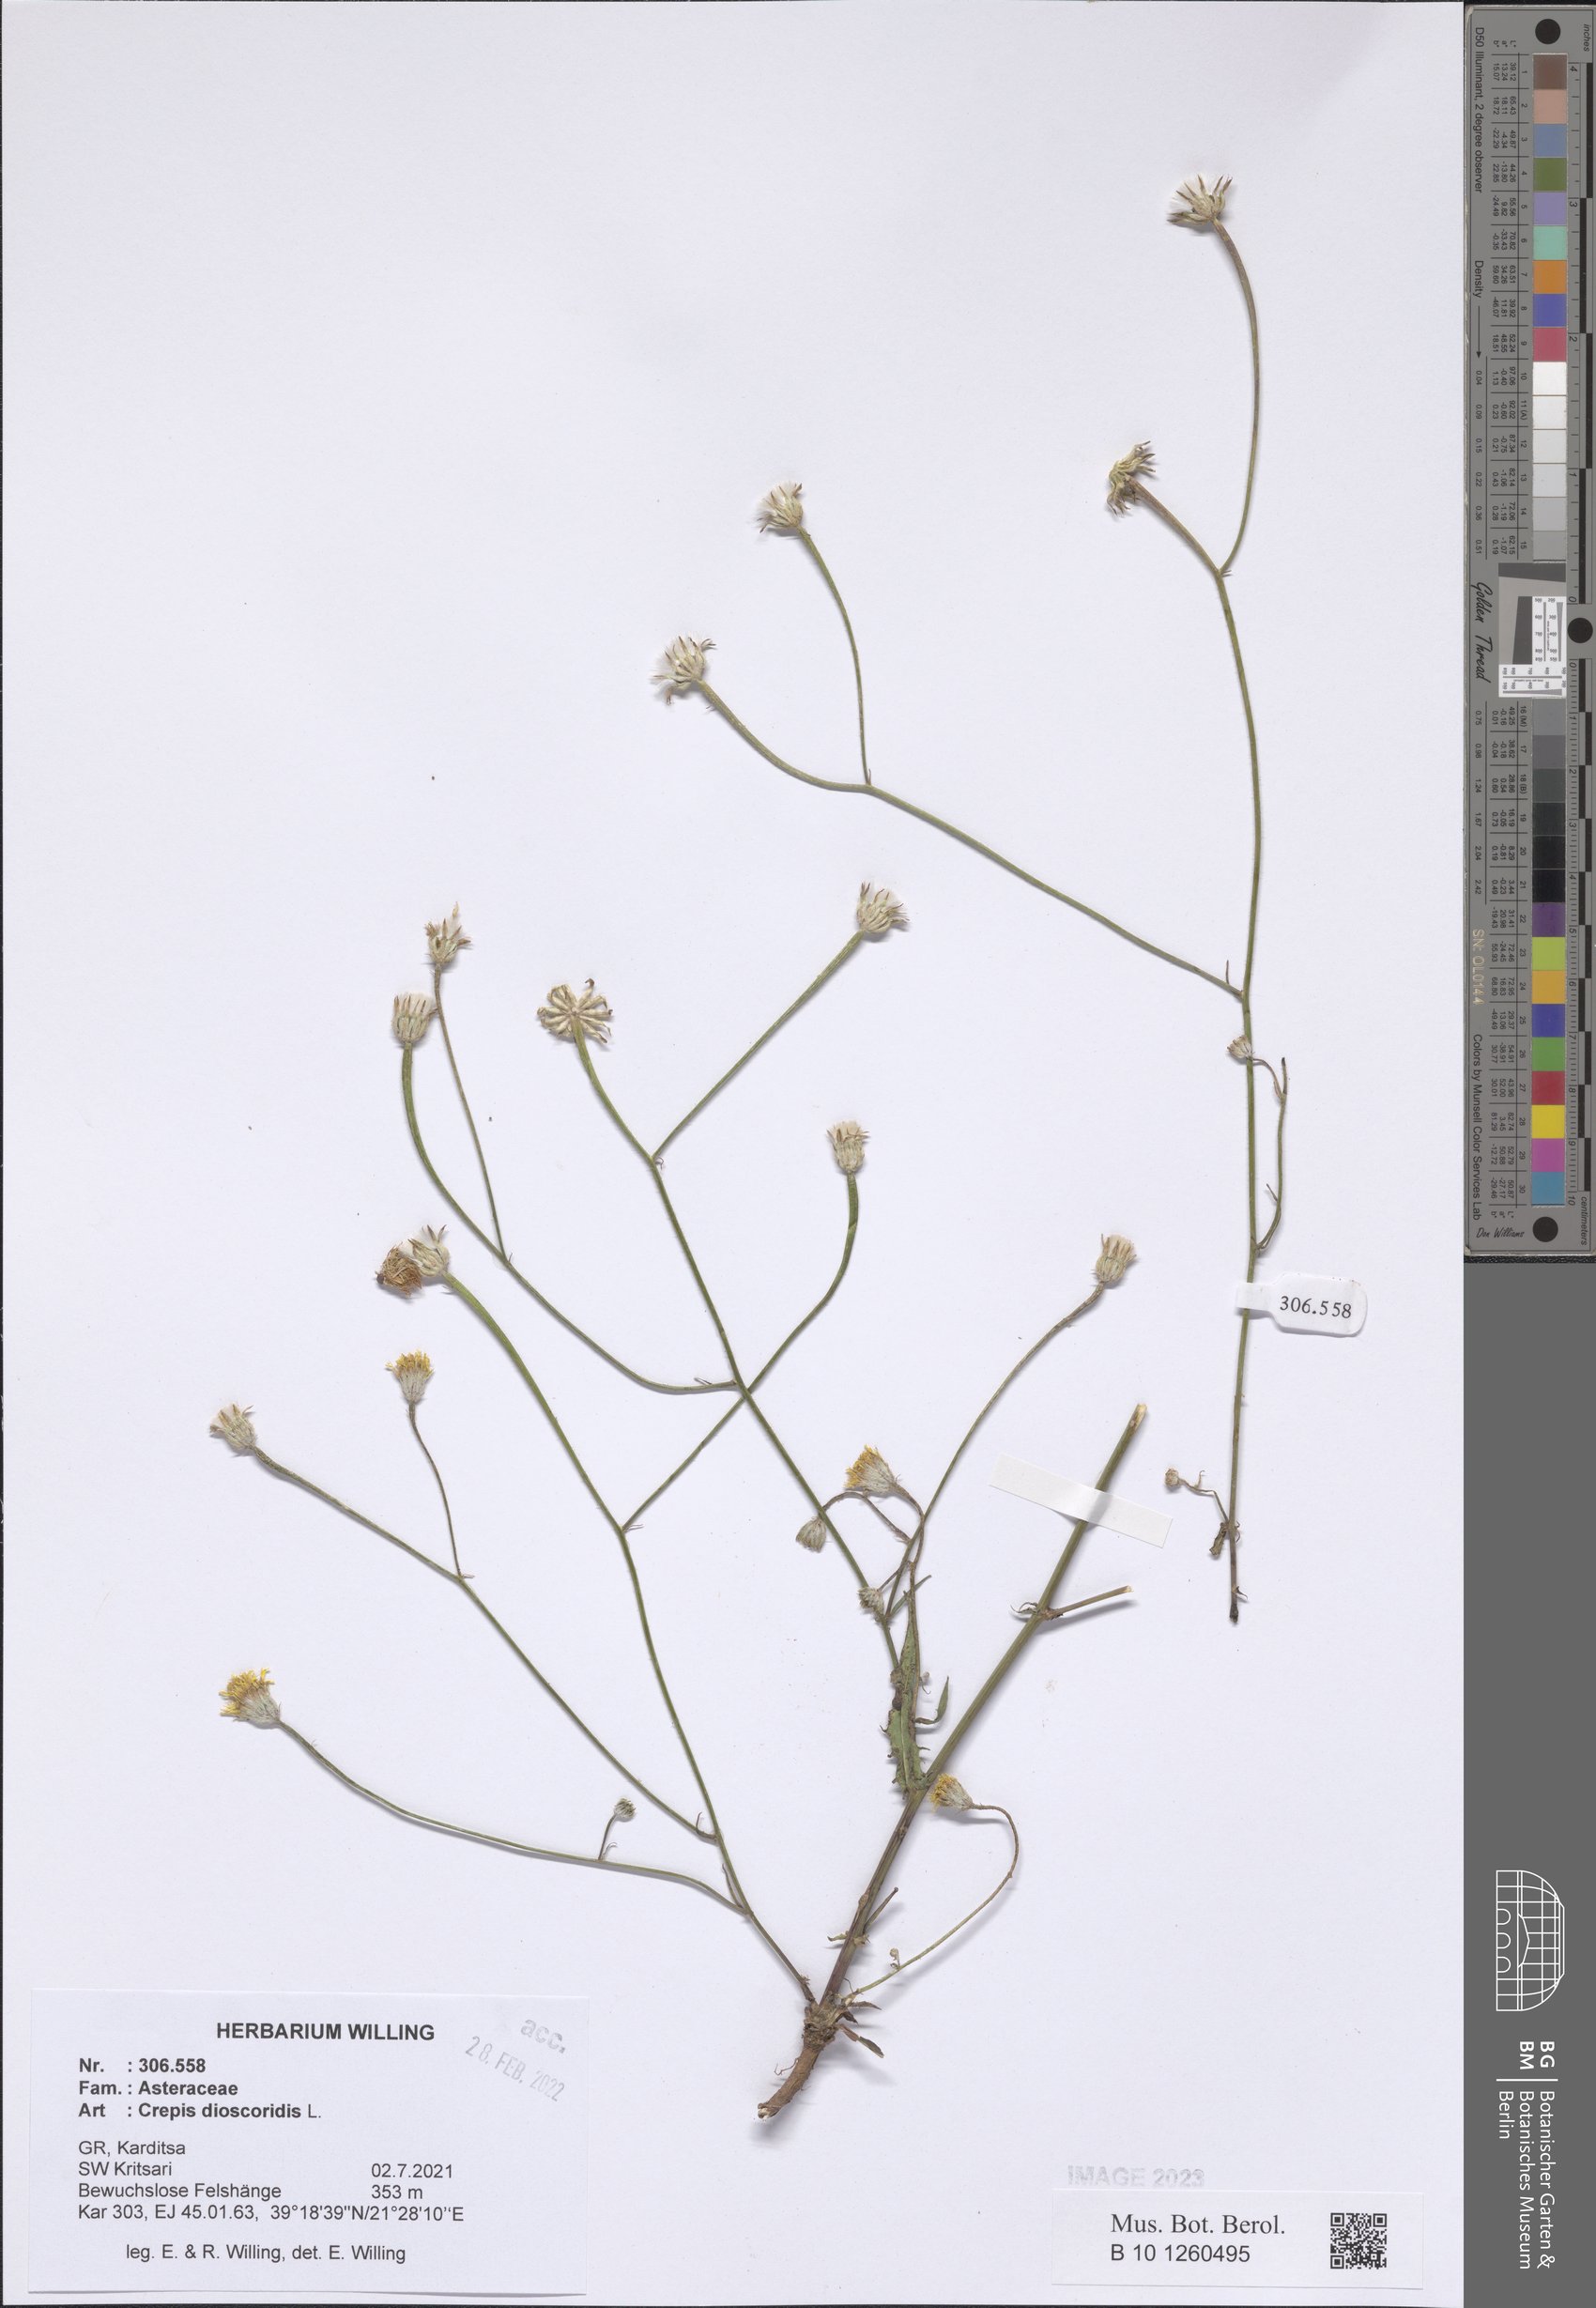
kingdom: Plantae
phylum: Tracheophyta
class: Magnoliopsida
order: Asterales
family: Asteraceae
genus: Crepis
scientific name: Crepis dioscoridis
